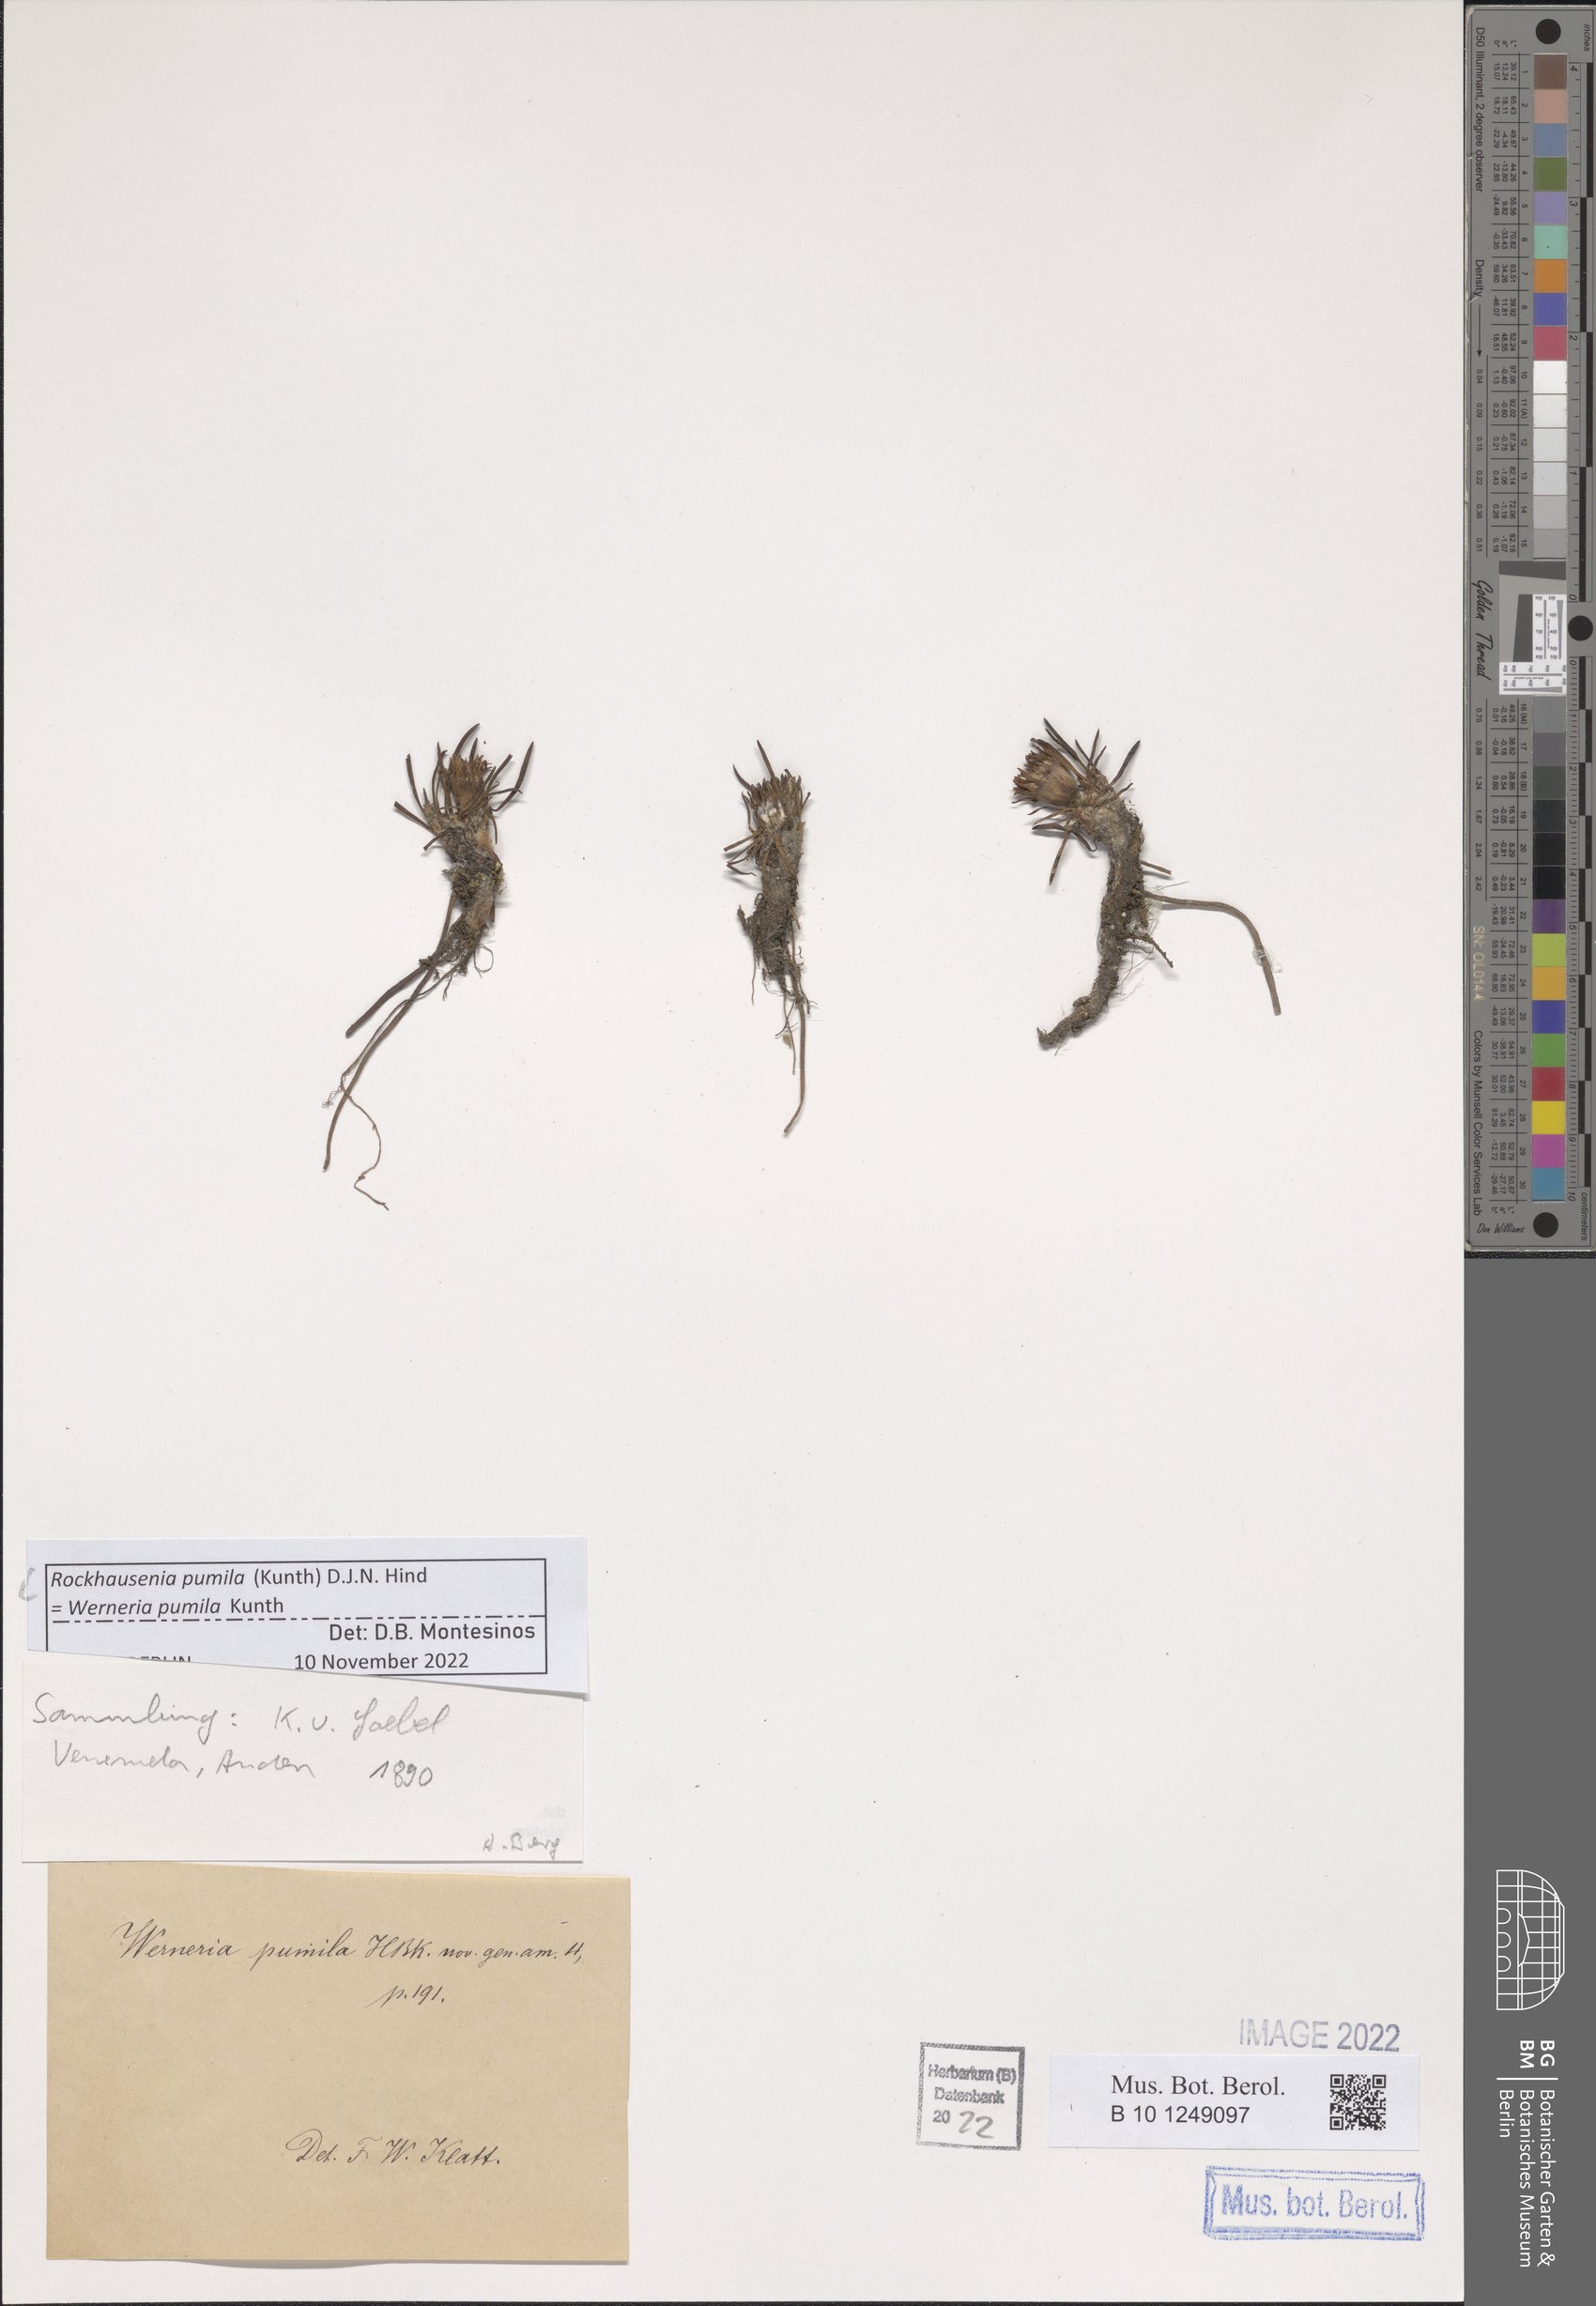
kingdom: Plantae
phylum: Tracheophyta
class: Magnoliopsida
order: Asterales
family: Asteraceae
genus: Rockhausenia
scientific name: Rockhausenia pumila
